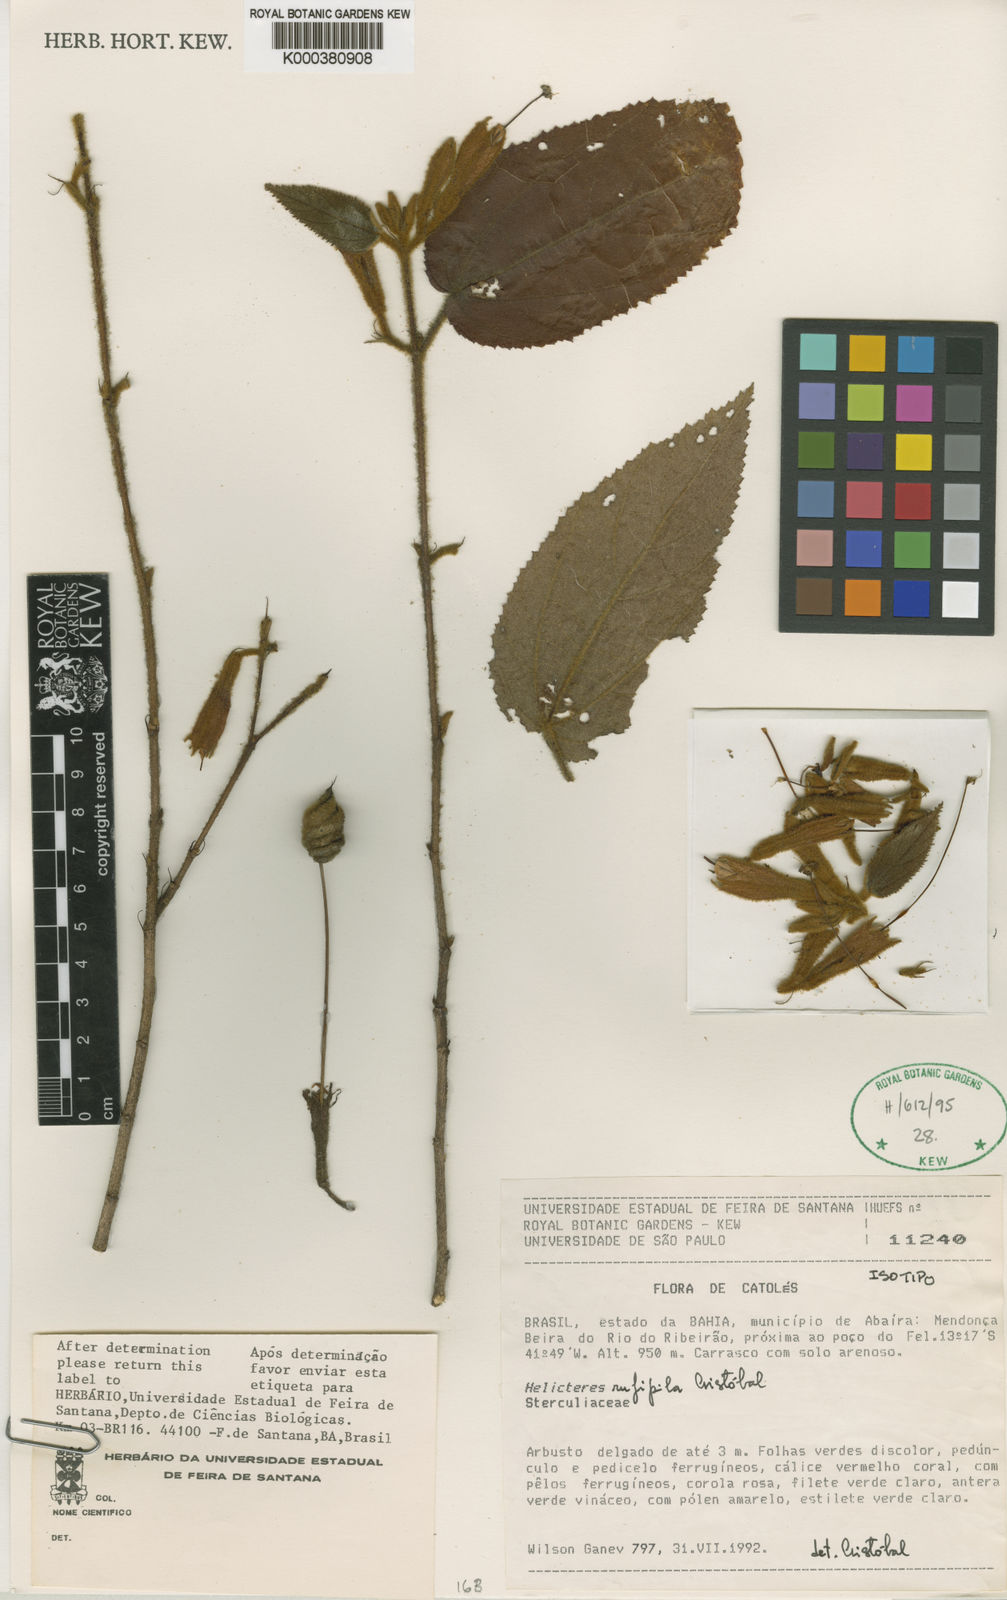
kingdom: Plantae
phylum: Tracheophyta
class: Magnoliopsida
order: Malvales
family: Malvaceae
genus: Helicteres
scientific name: Helicteres
